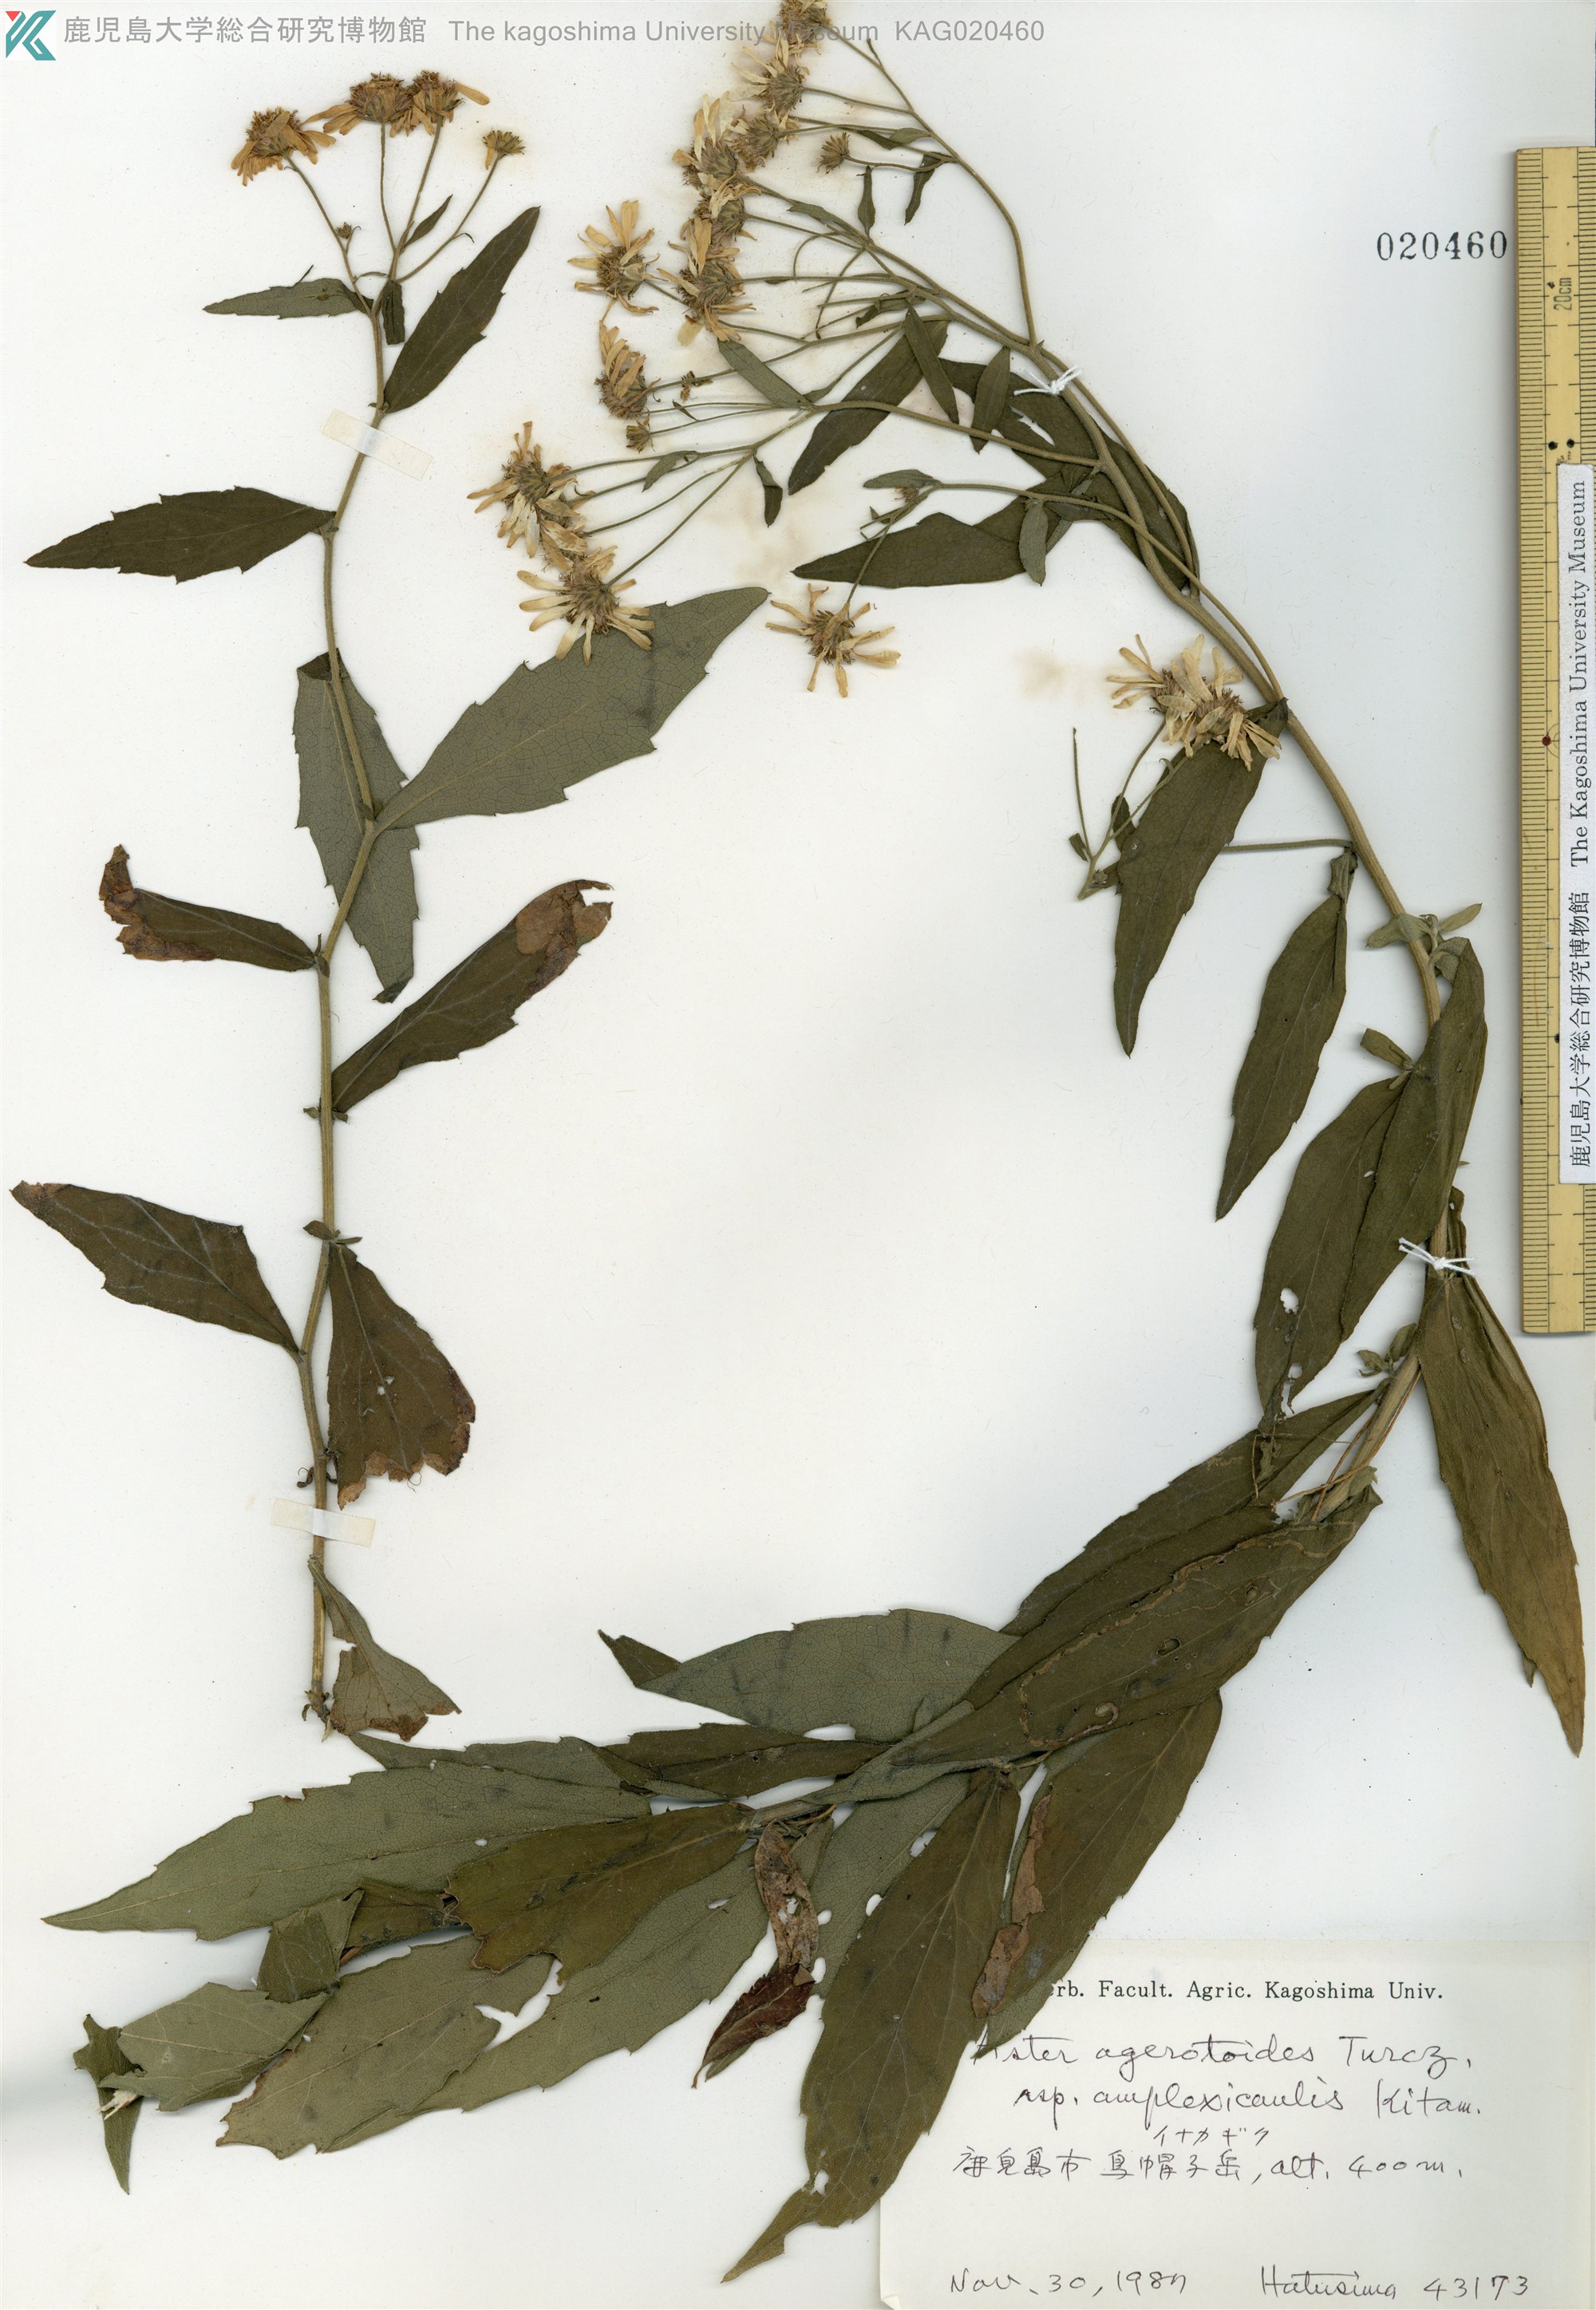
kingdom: Plantae
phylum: Tracheophyta
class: Magnoliopsida
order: Asterales
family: Asteraceae
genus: Aster
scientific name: Aster satsumensis
